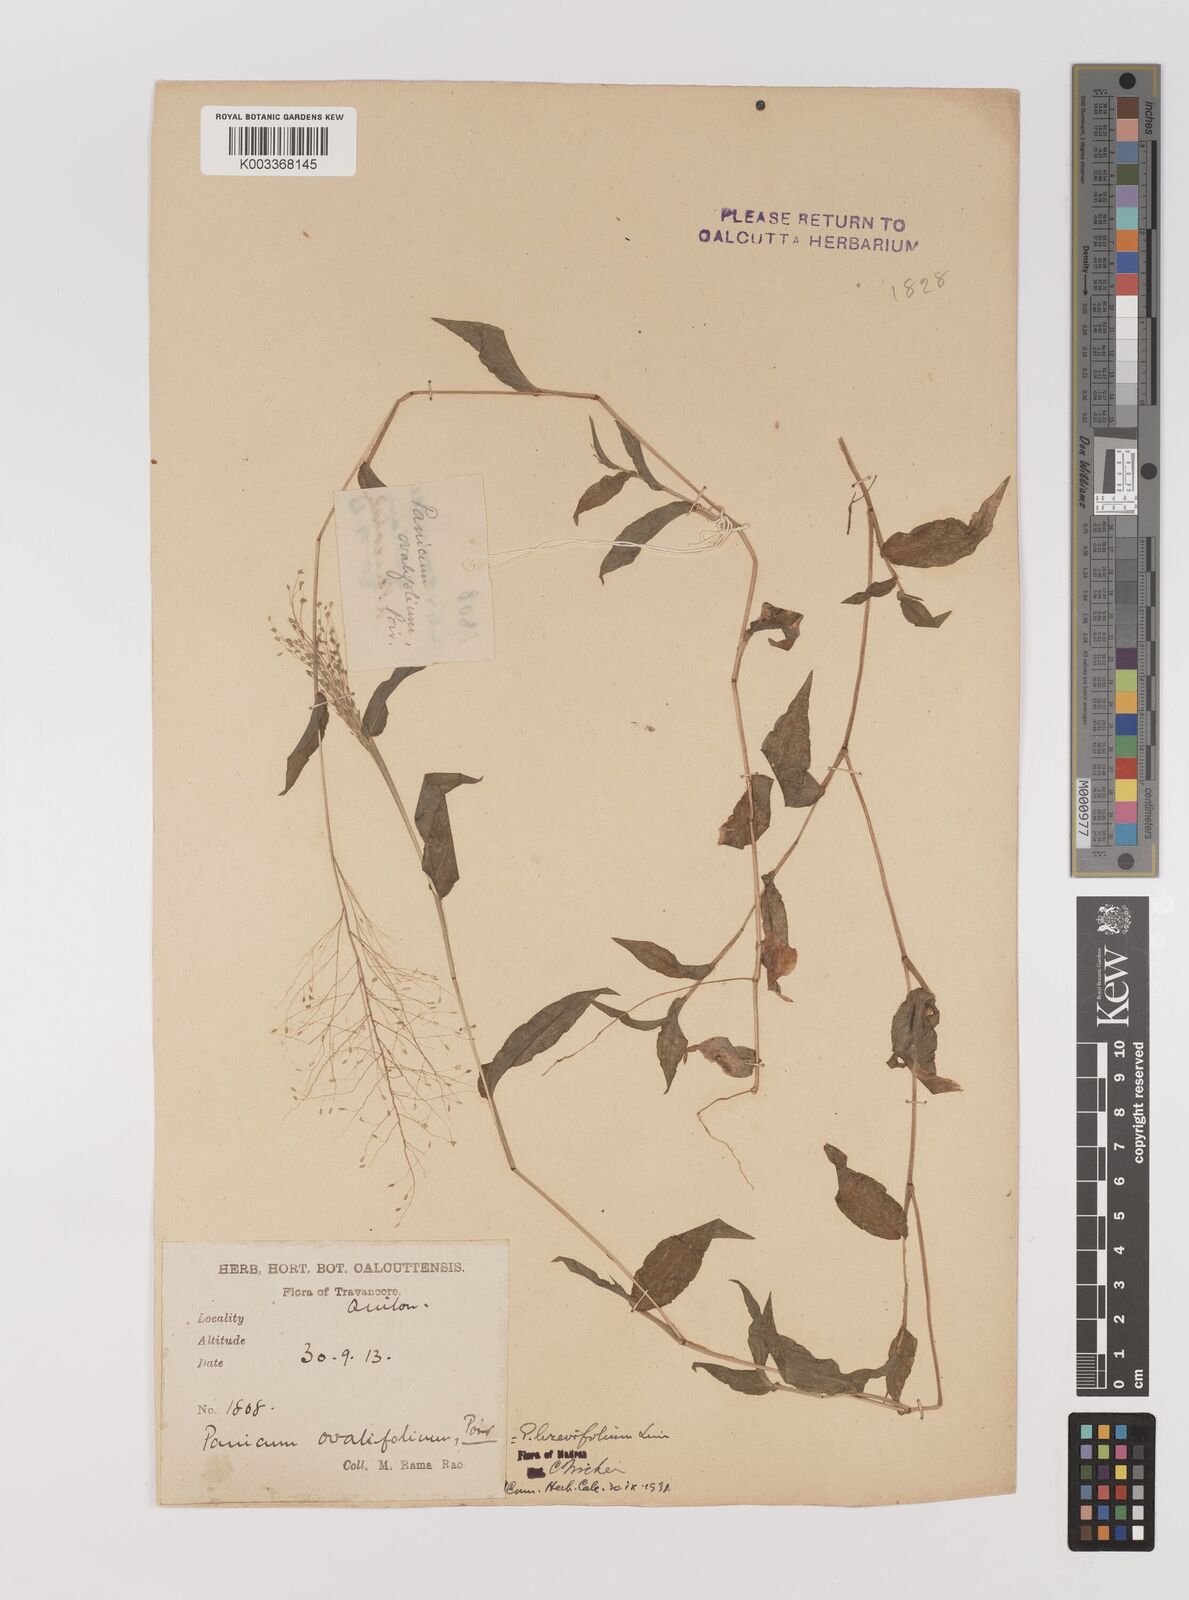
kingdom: Plantae
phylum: Tracheophyta
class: Liliopsida
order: Poales
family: Poaceae
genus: Panicum
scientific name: Panicum brevifolium
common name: Shortleaf panic grass
